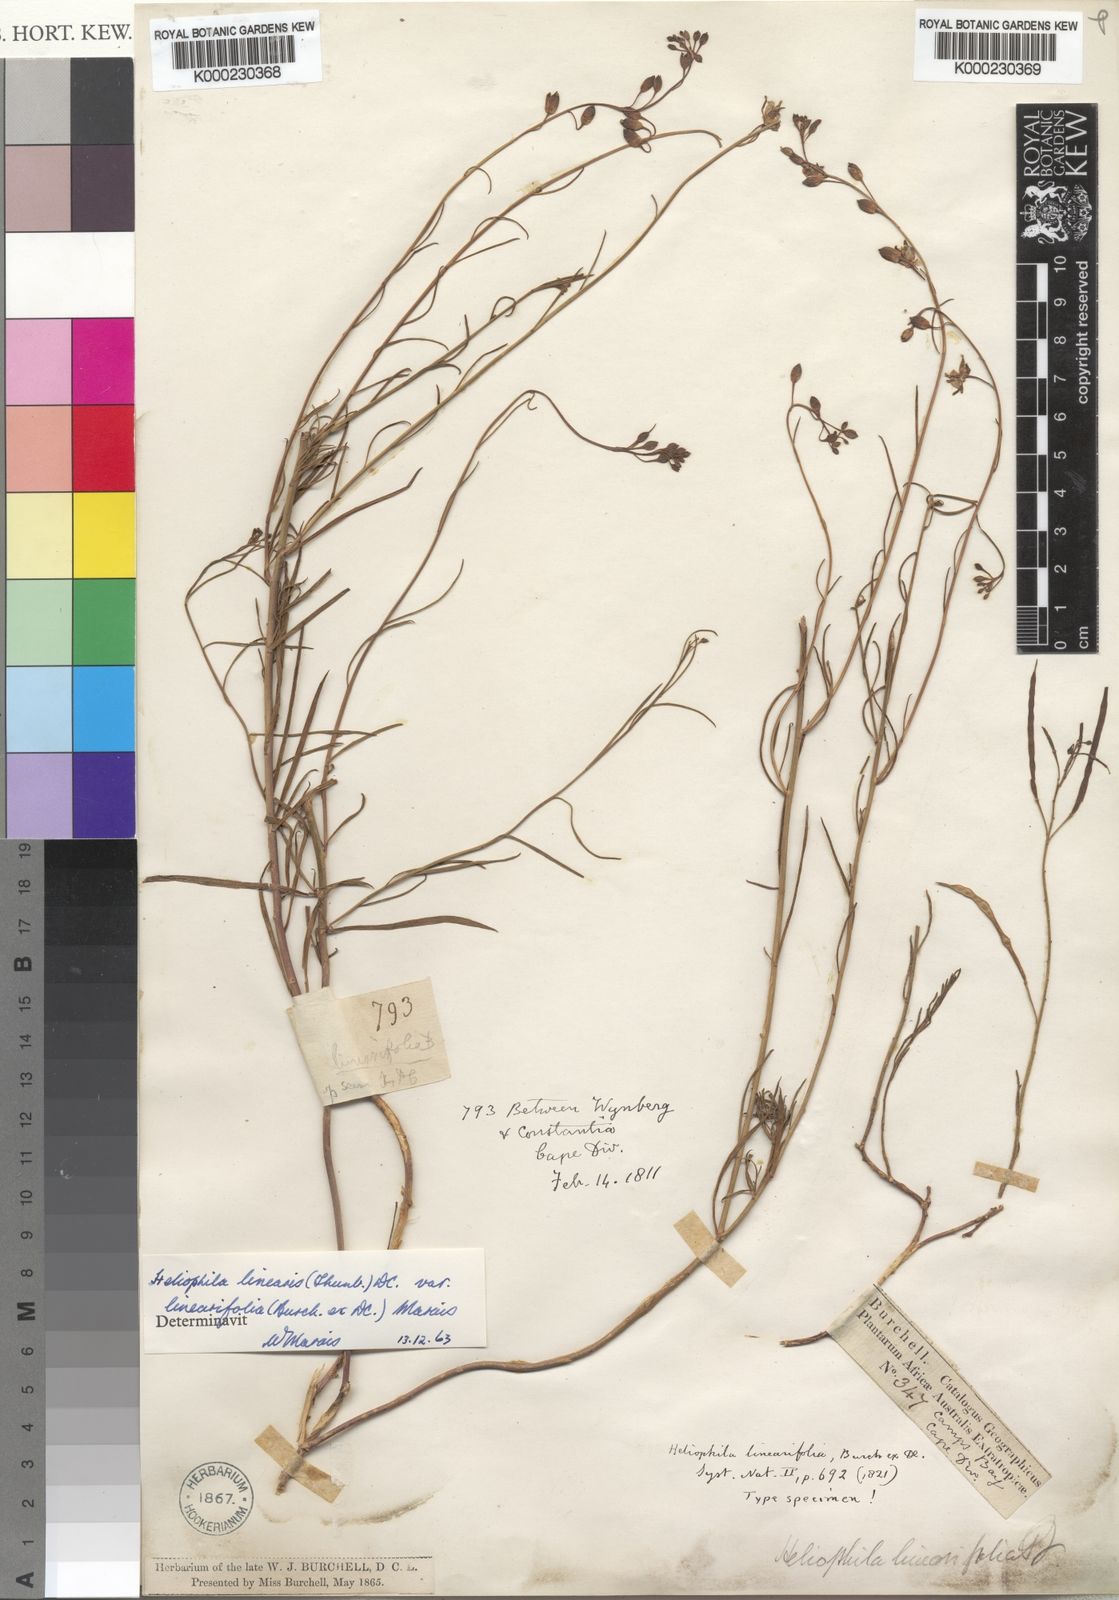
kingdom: Plantae
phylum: Tracheophyta
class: Magnoliopsida
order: Brassicales
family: Brassicaceae
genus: Heliophila
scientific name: Heliophila linearis
